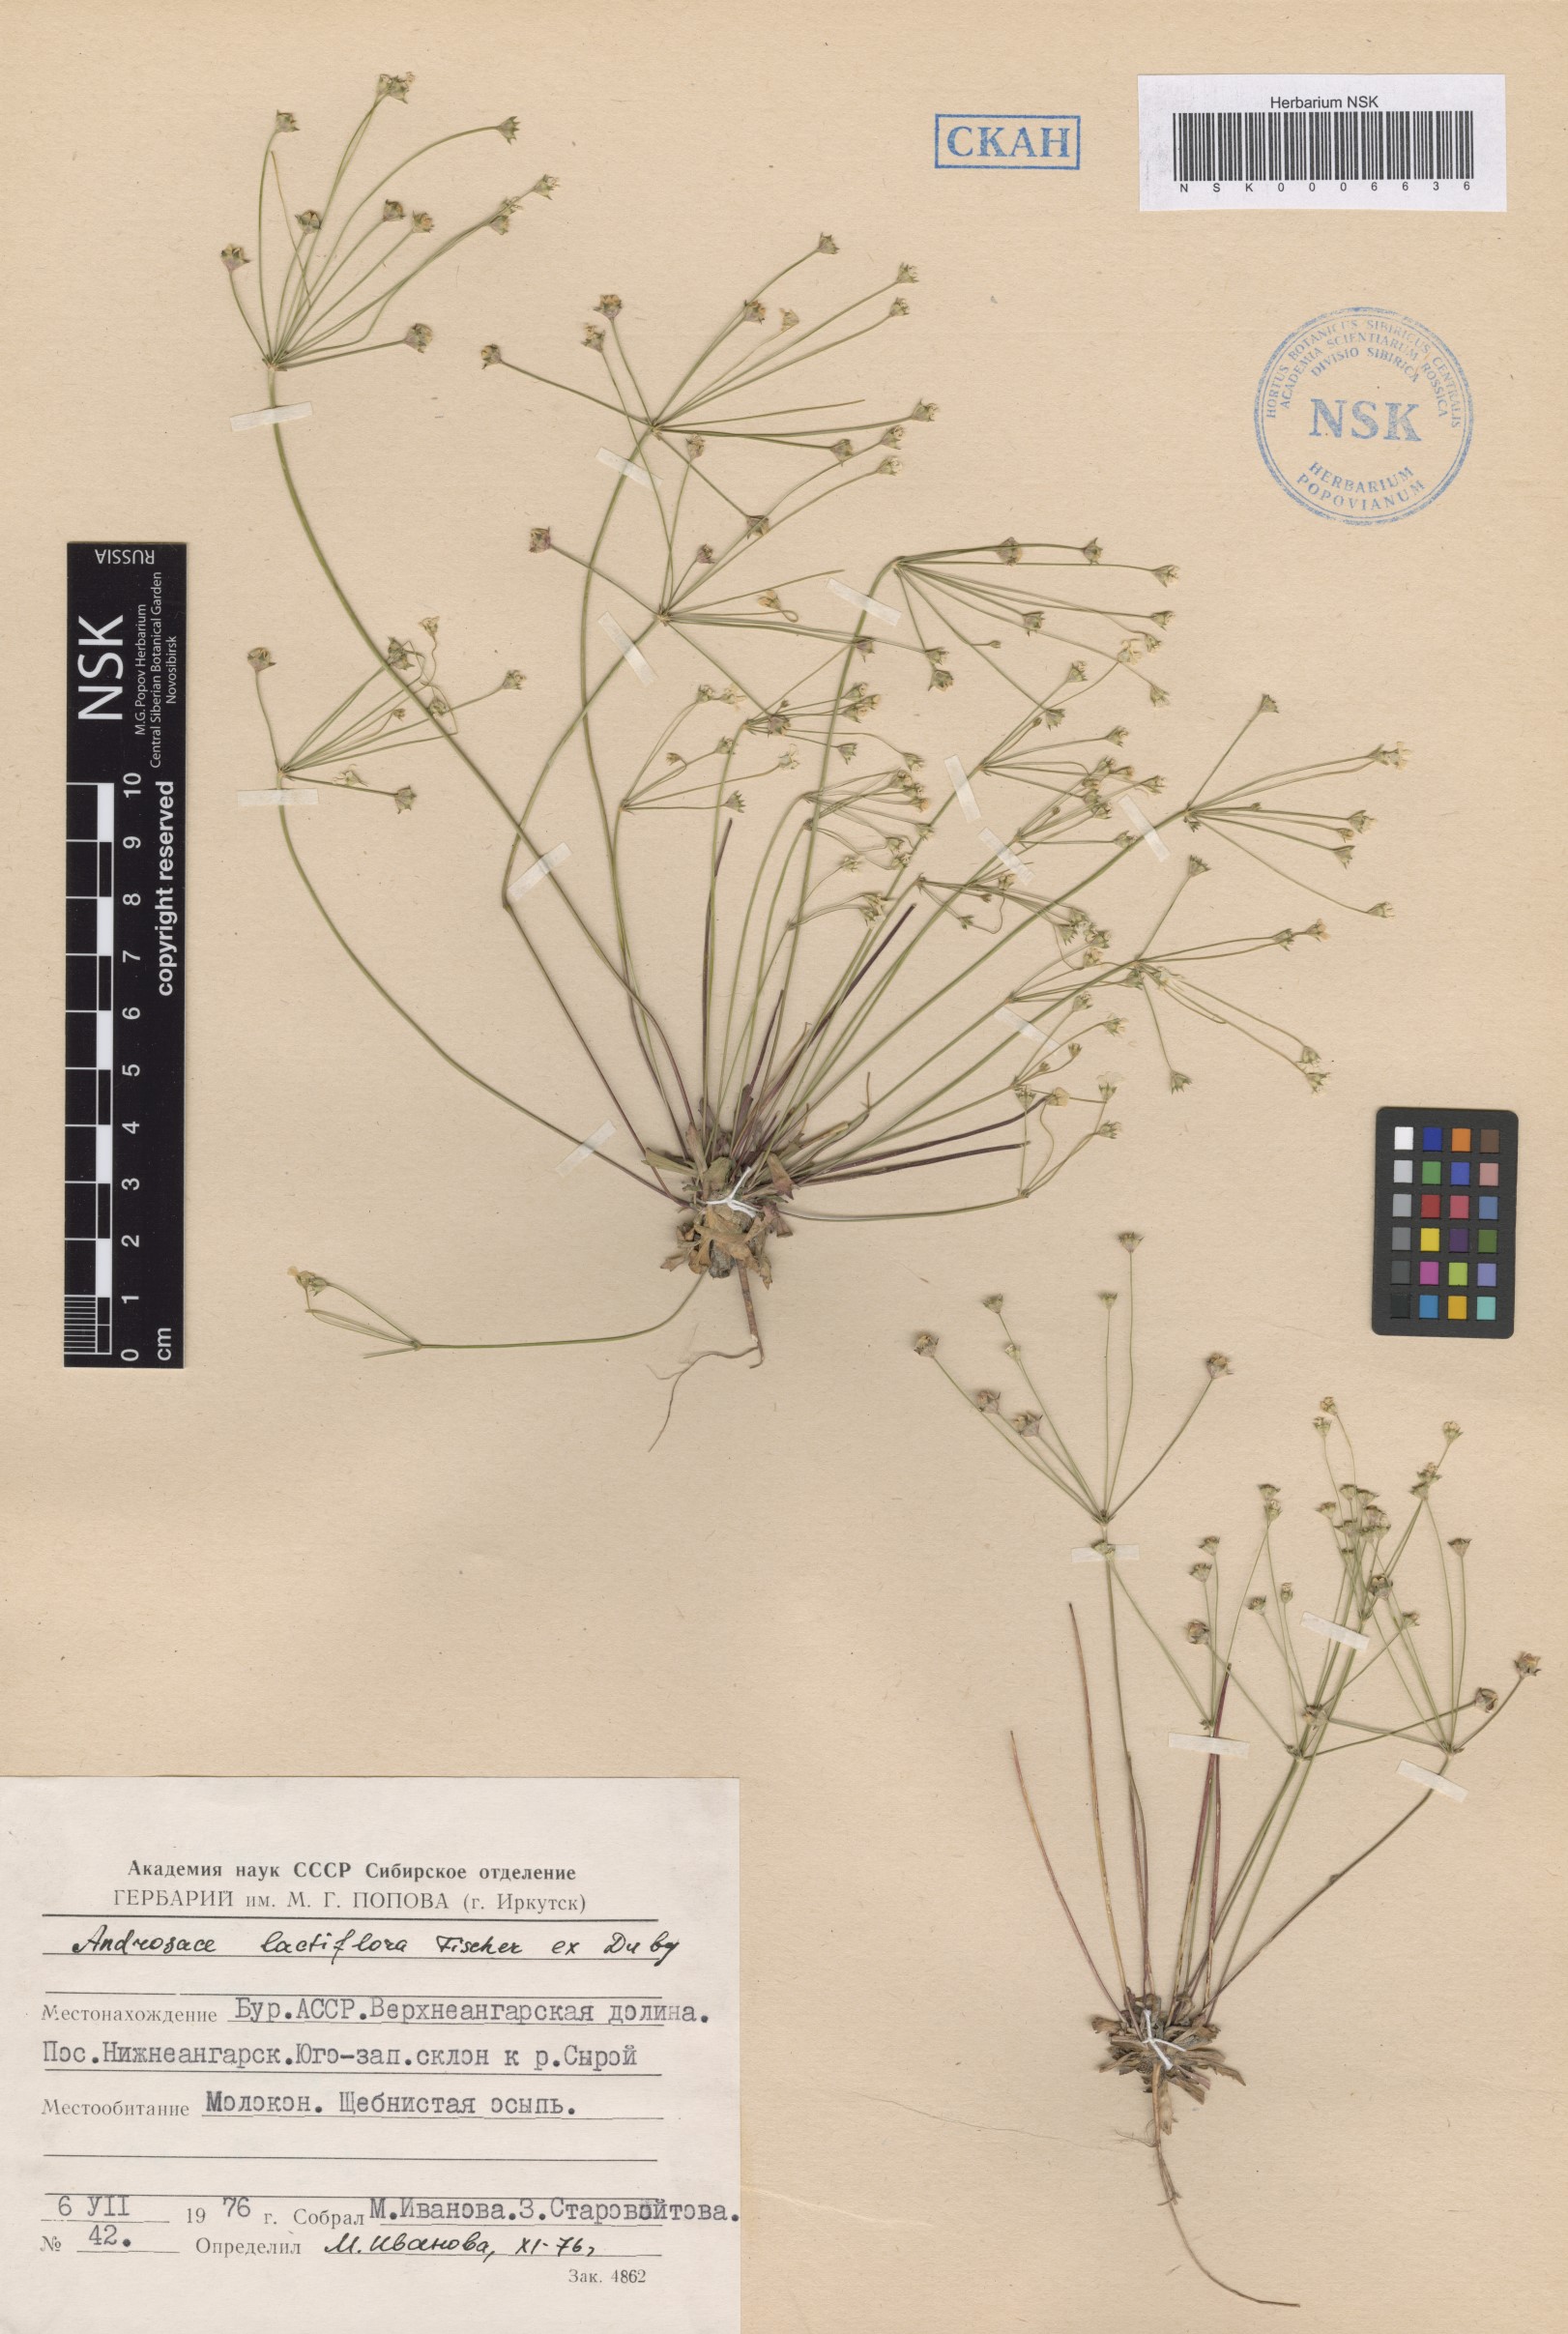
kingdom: Plantae
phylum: Tracheophyta
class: Magnoliopsida
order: Ericales
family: Primulaceae
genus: Androsace
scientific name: Androsace lactiflora
